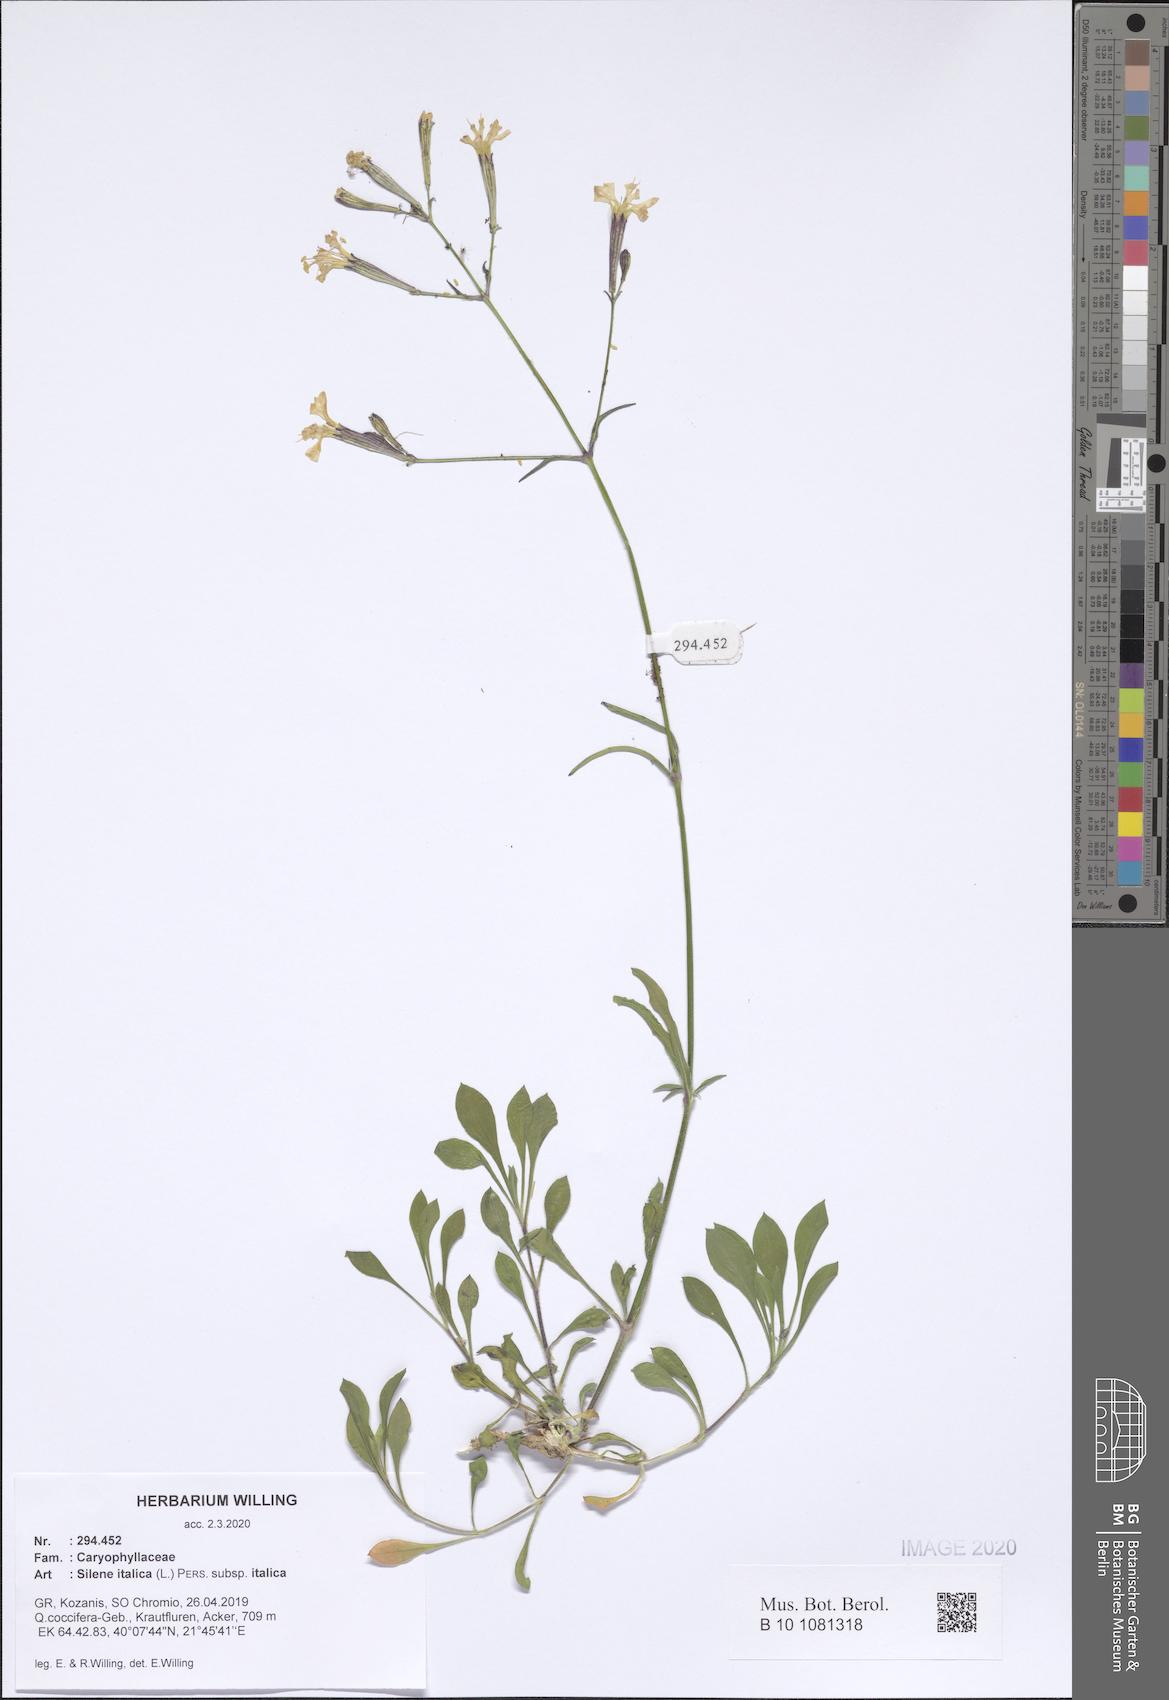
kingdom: Plantae
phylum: Tracheophyta
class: Magnoliopsida
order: Caryophyllales
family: Caryophyllaceae
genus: Silene
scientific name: Silene italica
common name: Italian catchfly
